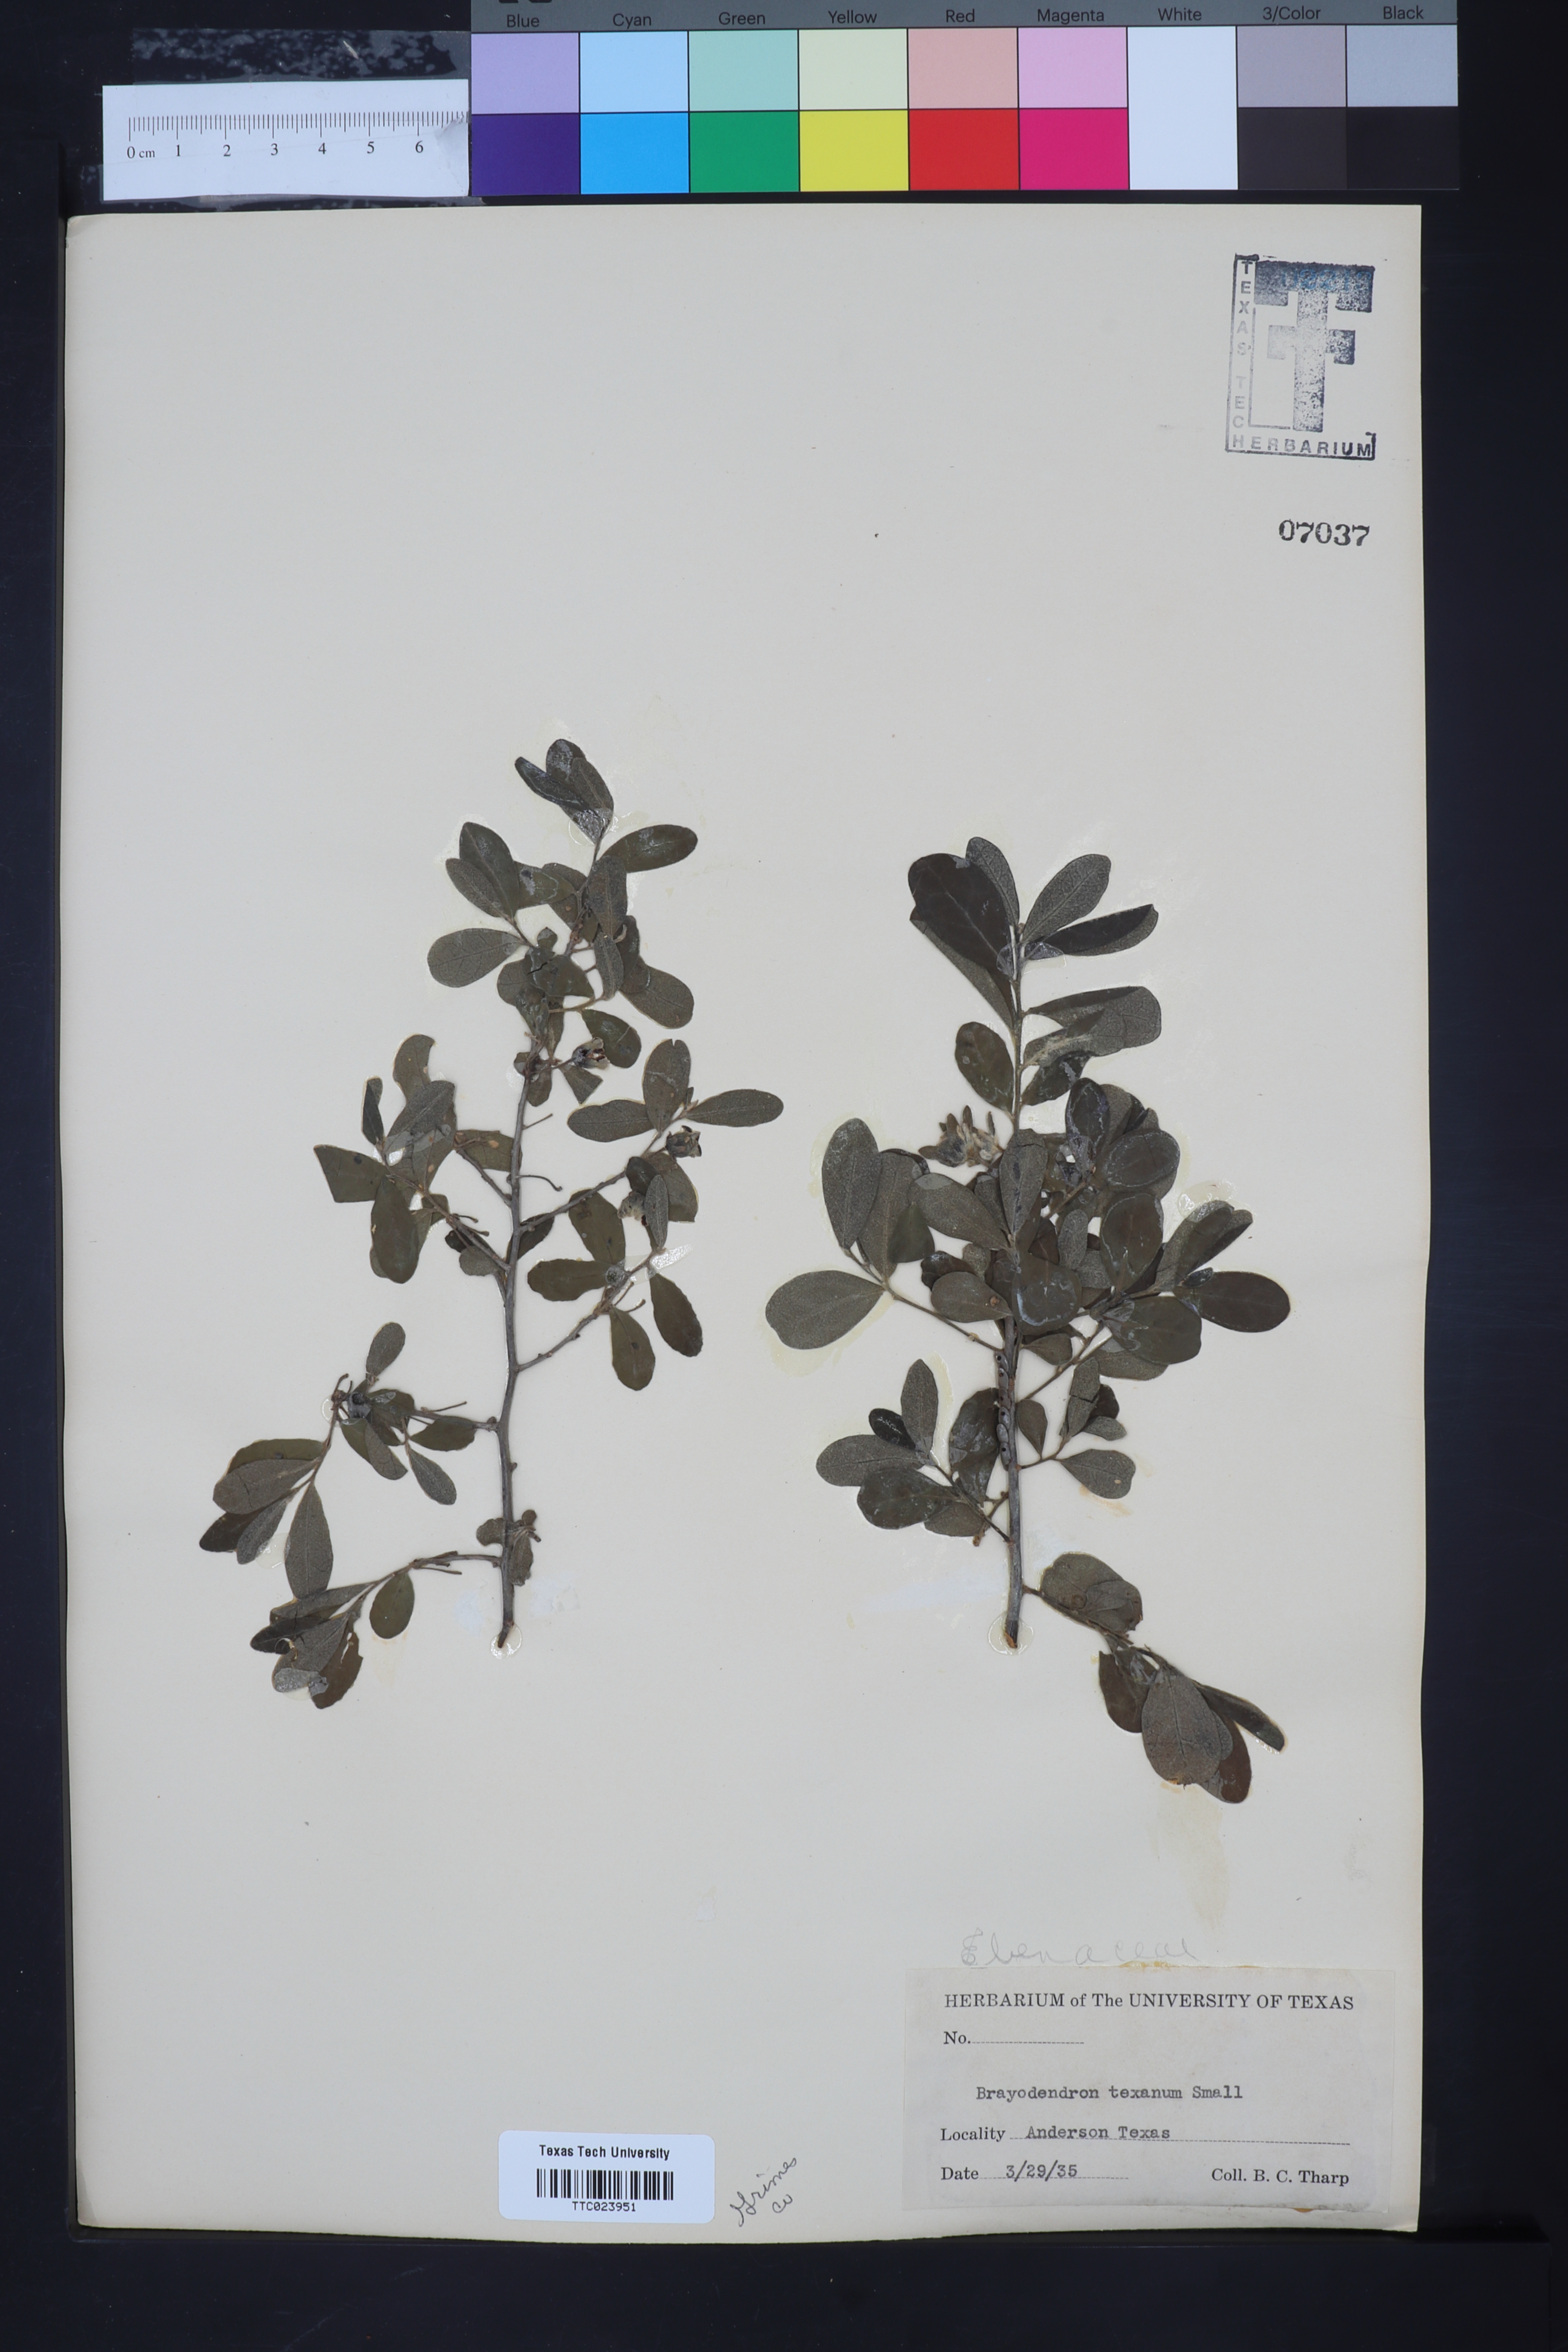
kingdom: Plantae
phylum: Tracheophyta
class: Magnoliopsida
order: Ericales
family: Ebenaceae
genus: Diospyros
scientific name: Diospyros texana
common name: Texas persimmon
